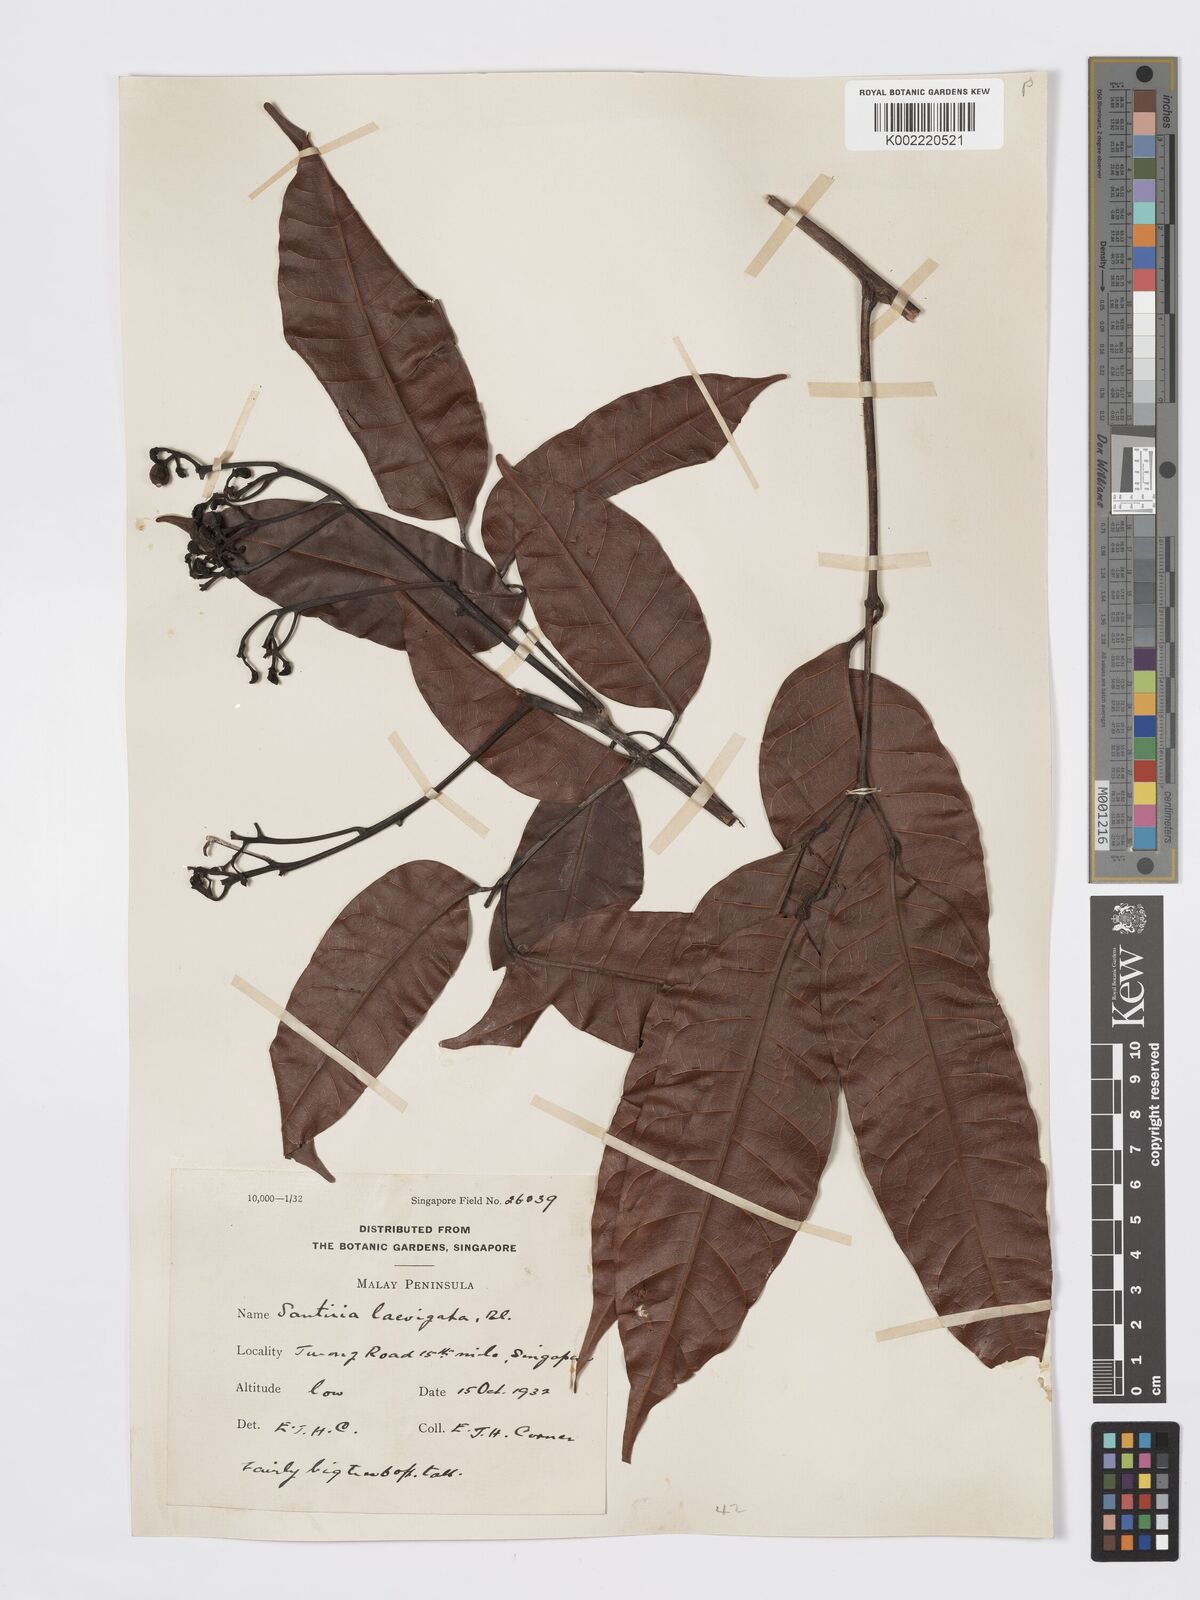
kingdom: Plantae
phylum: Tracheophyta
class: Magnoliopsida
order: Sapindales
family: Burseraceae
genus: Santiria
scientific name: Santiria laevigata
